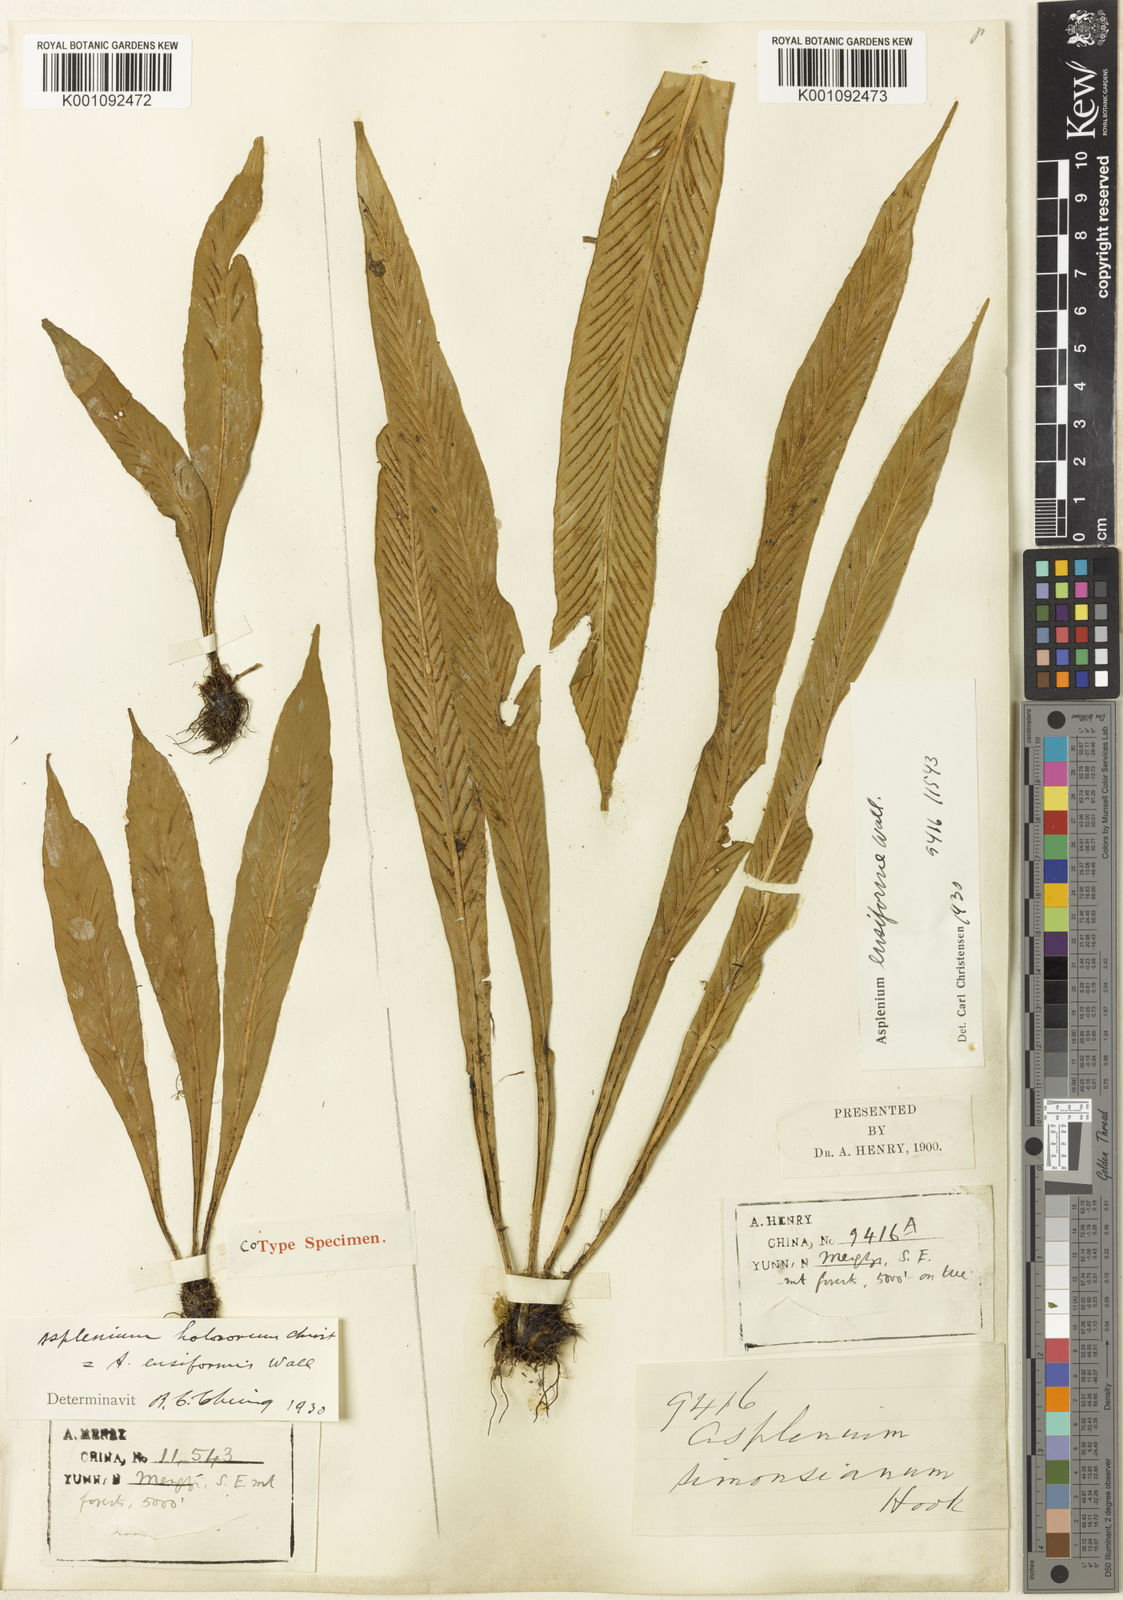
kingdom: Plantae
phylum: Tracheophyta
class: Polypodiopsida
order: Polypodiales
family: Aspleniaceae
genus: Asplenium
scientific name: Asplenium ensiforme
